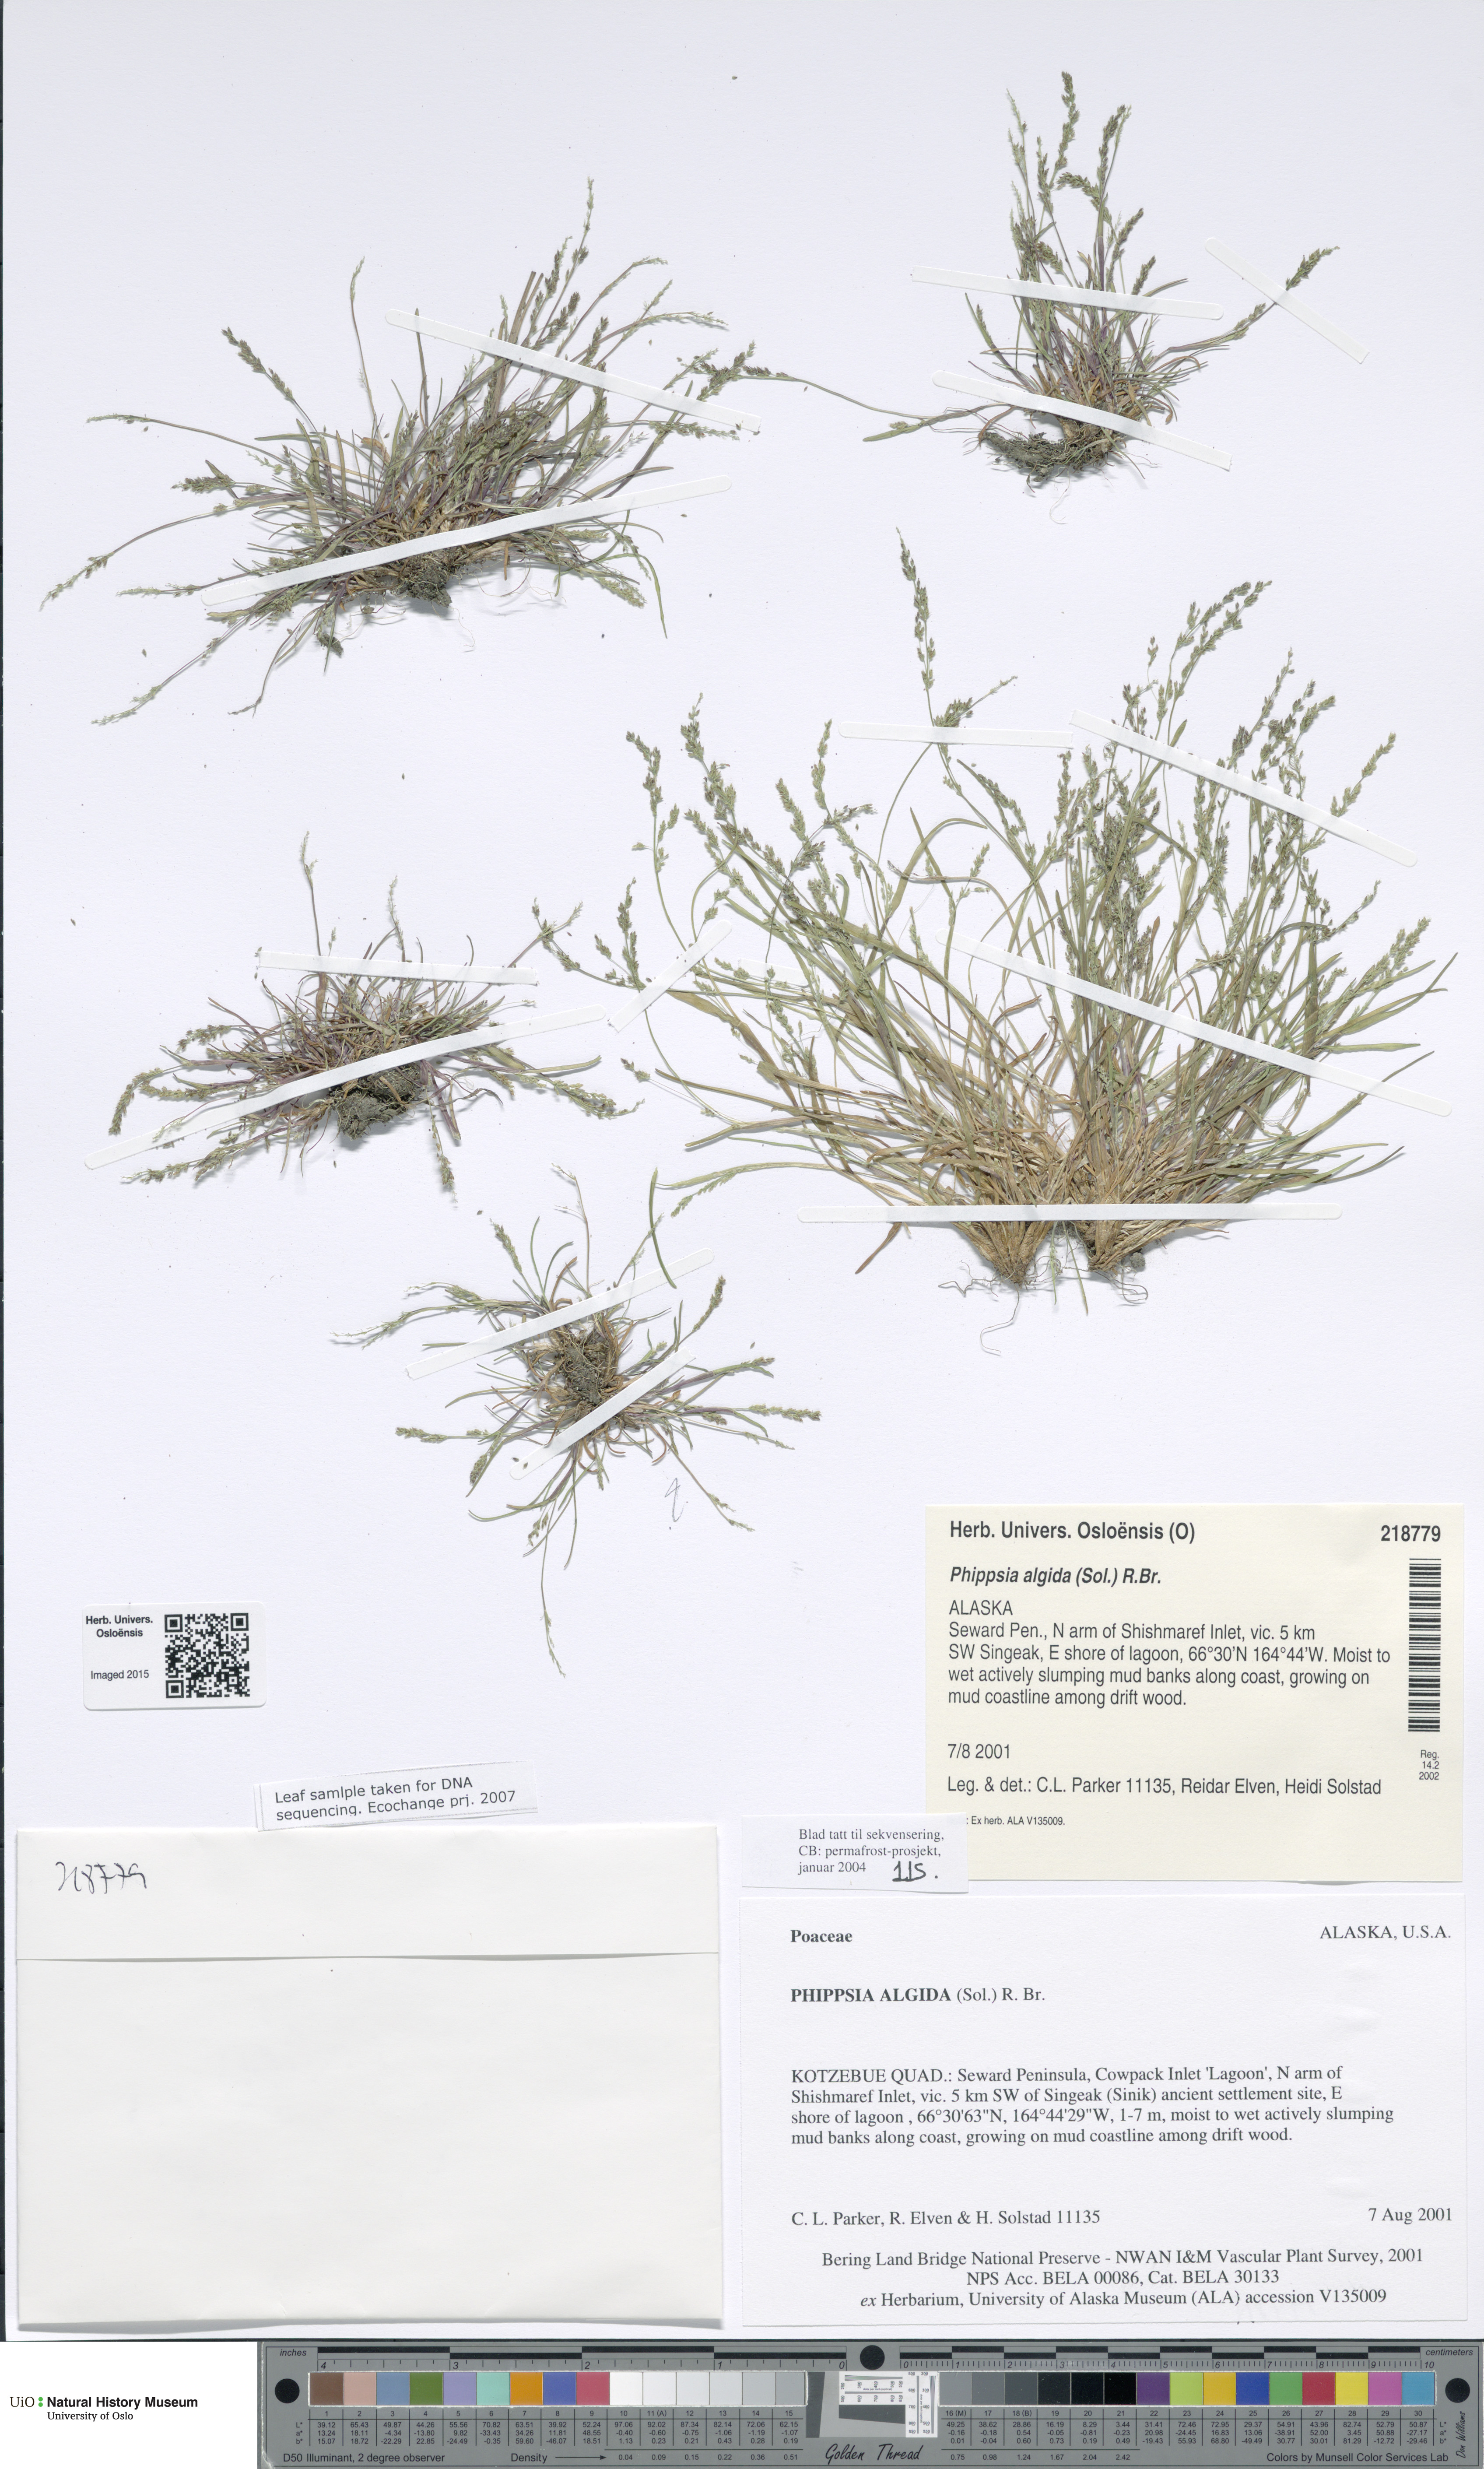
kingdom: Plantae
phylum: Tracheophyta
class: Liliopsida
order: Poales
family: Poaceae
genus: Phippsia
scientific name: Phippsia algida
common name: Ice grass
